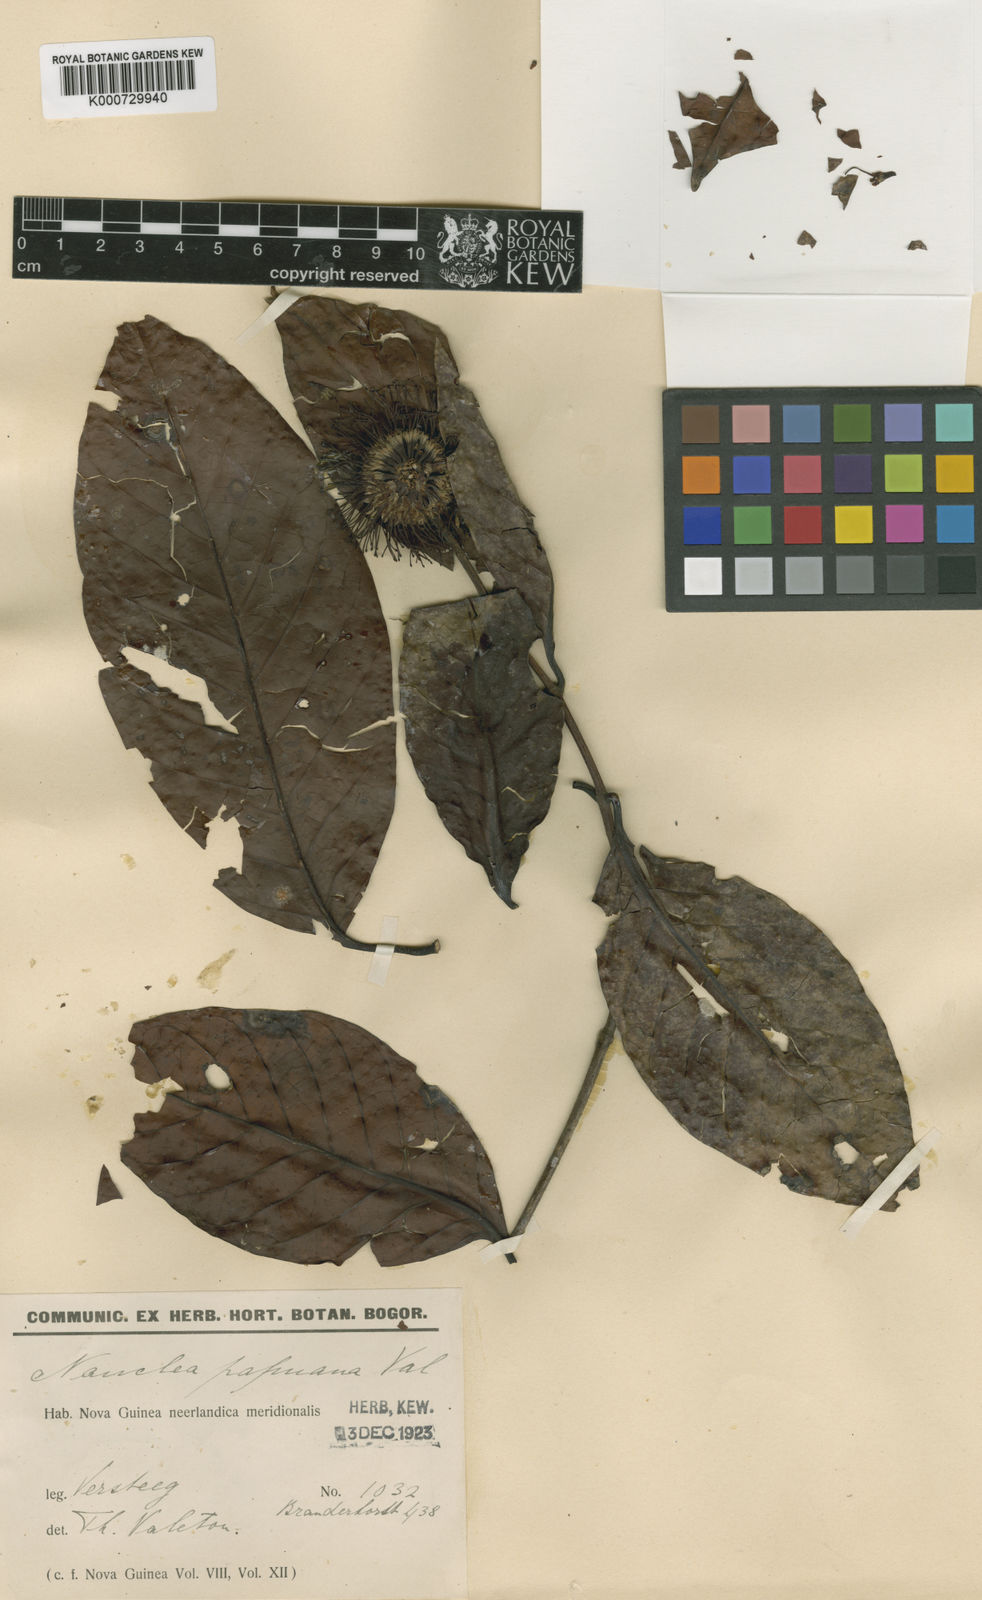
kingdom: Plantae
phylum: Tracheophyta
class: Magnoliopsida
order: Gentianales
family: Rubiaceae
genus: Neonauclea
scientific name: Neonauclea hagenii
